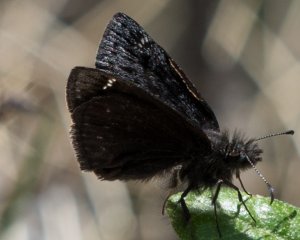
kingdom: Animalia
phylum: Arthropoda
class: Insecta
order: Lepidoptera
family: Hesperiidae
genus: Gesta
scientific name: Gesta
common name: Persius Duskywing
